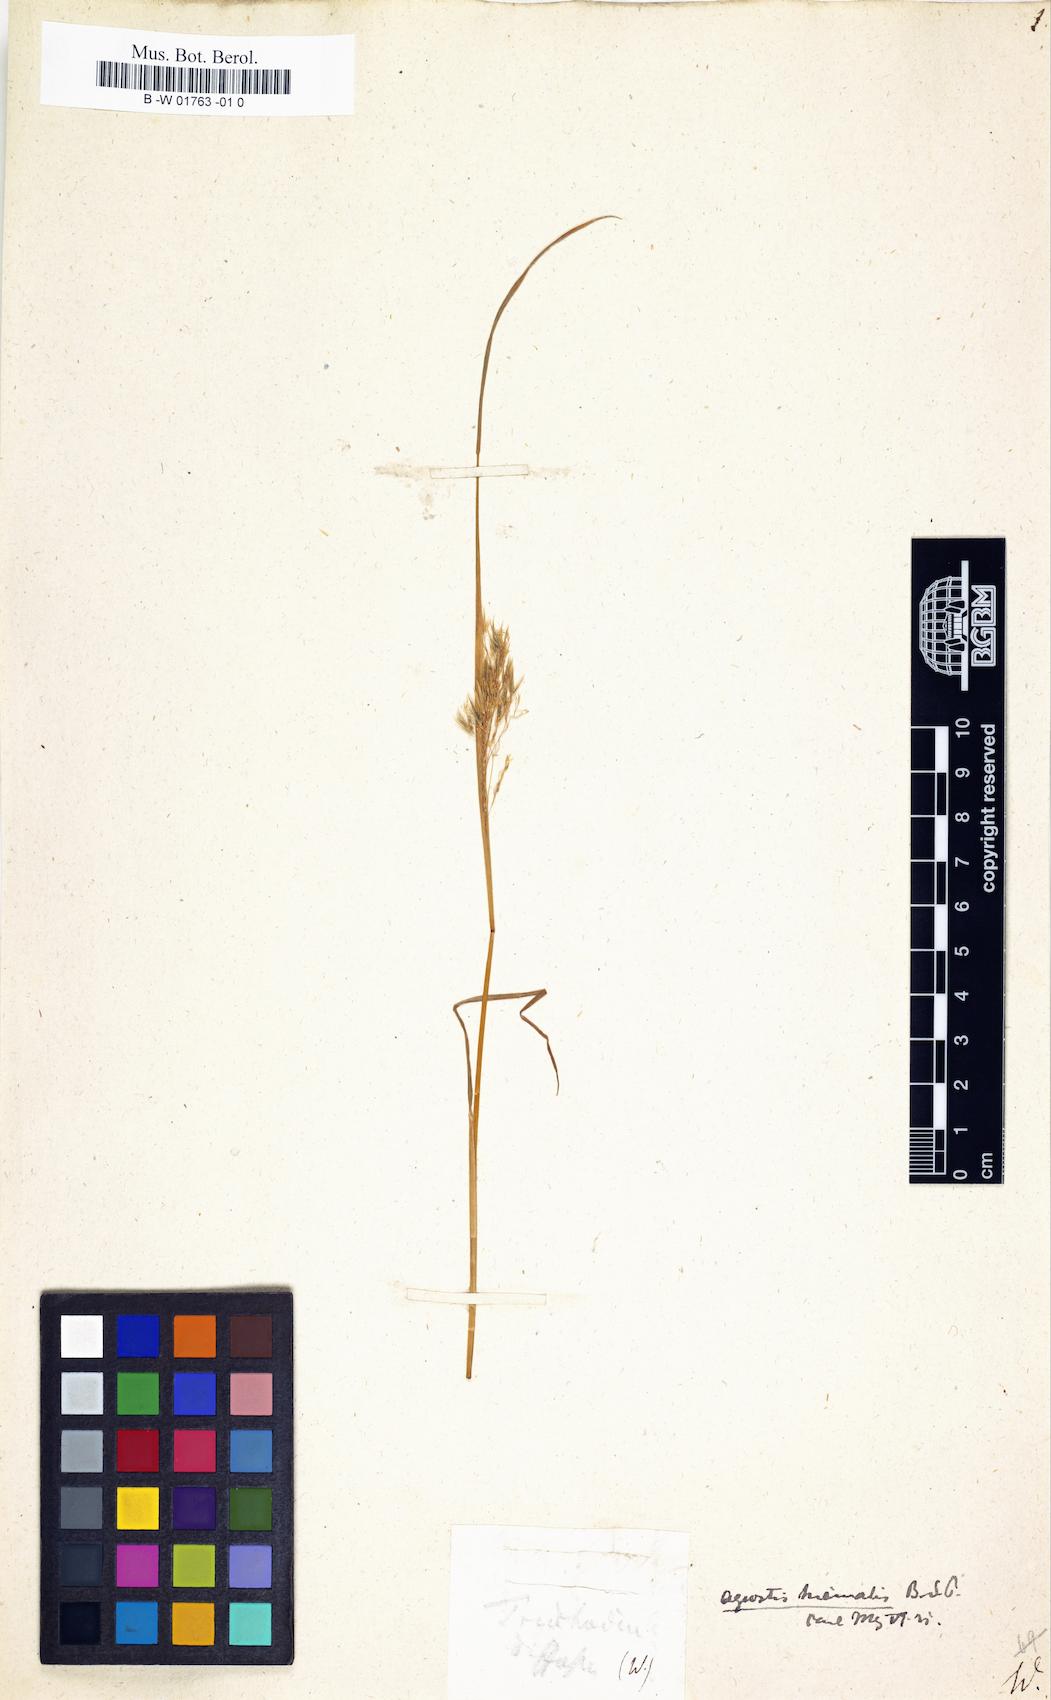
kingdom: Plantae
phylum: Tracheophyta
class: Liliopsida
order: Poales
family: Poaceae
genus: Agrostis
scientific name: Agrostis canina
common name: Velvet bent
